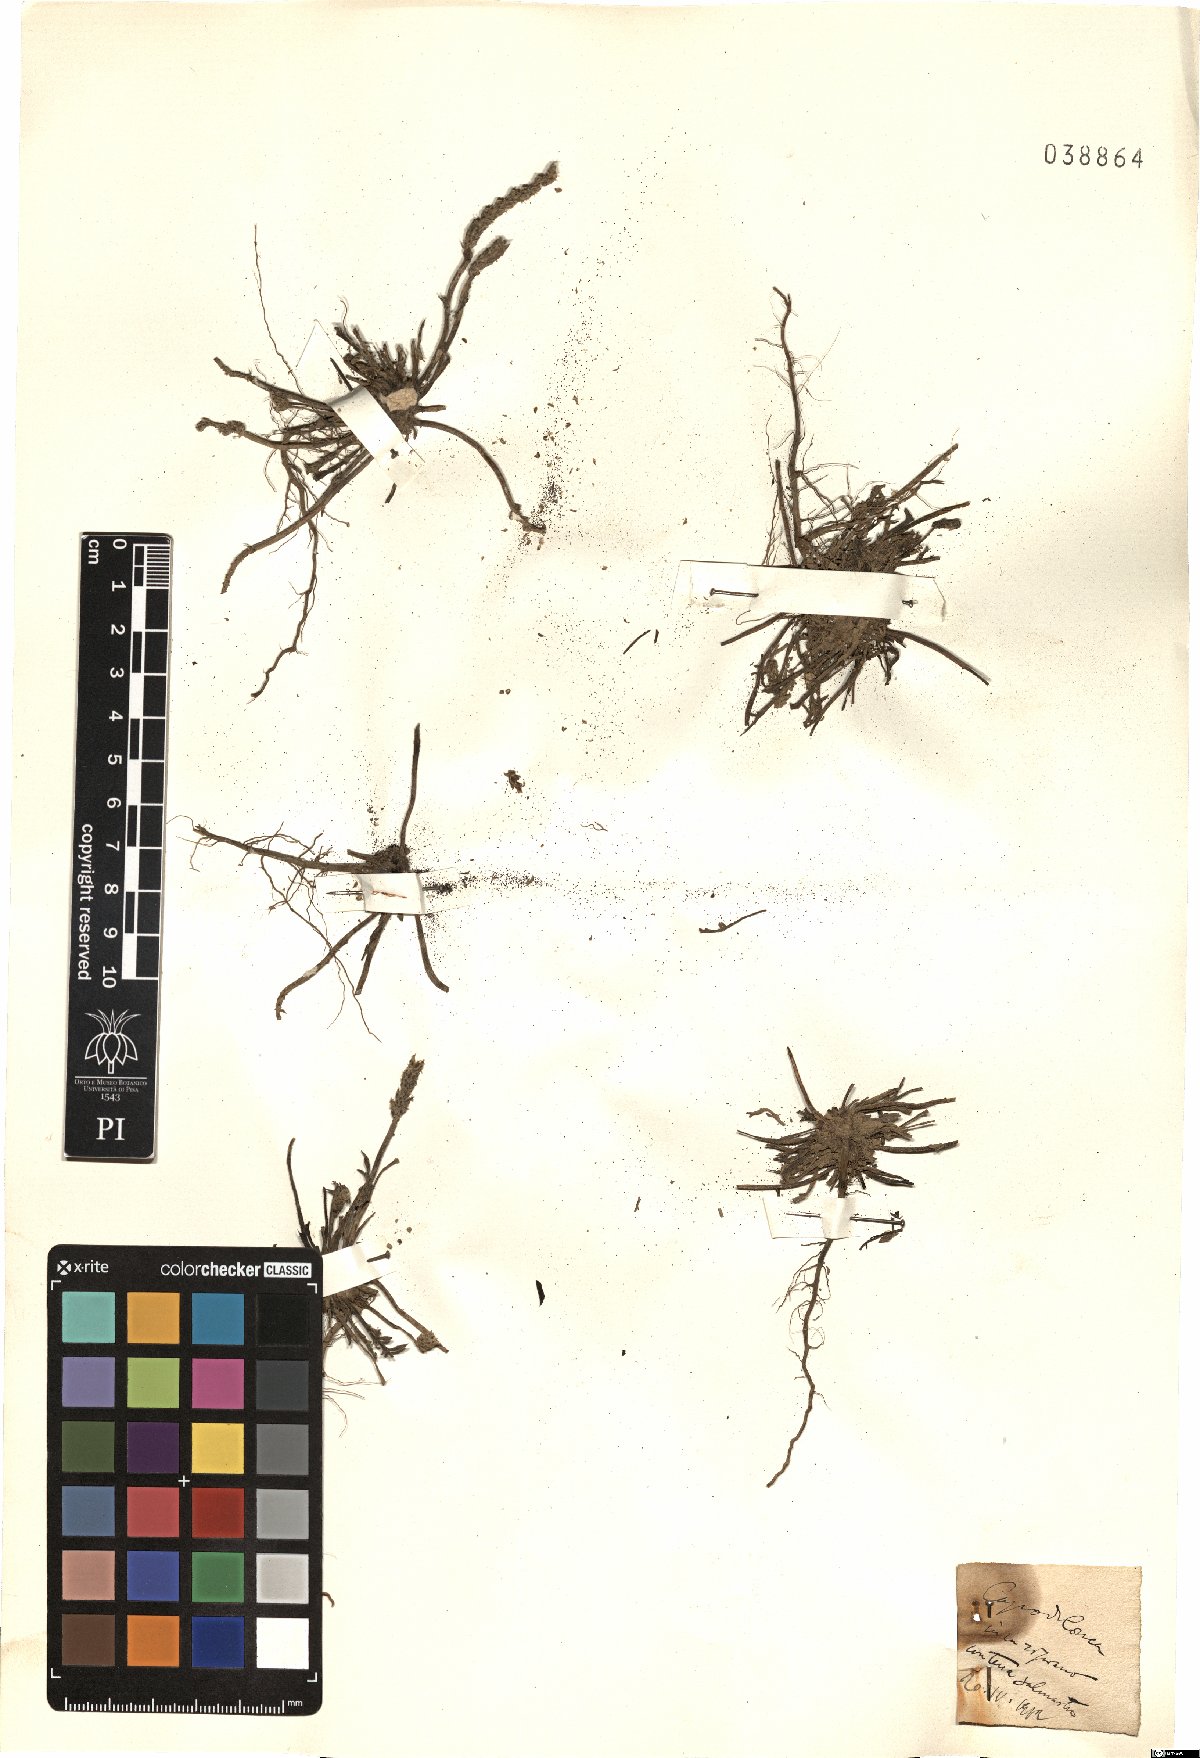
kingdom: Plantae
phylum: Tracheophyta
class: Magnoliopsida
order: Lamiales
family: Plantaginaceae
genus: Plantago
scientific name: Plantago
